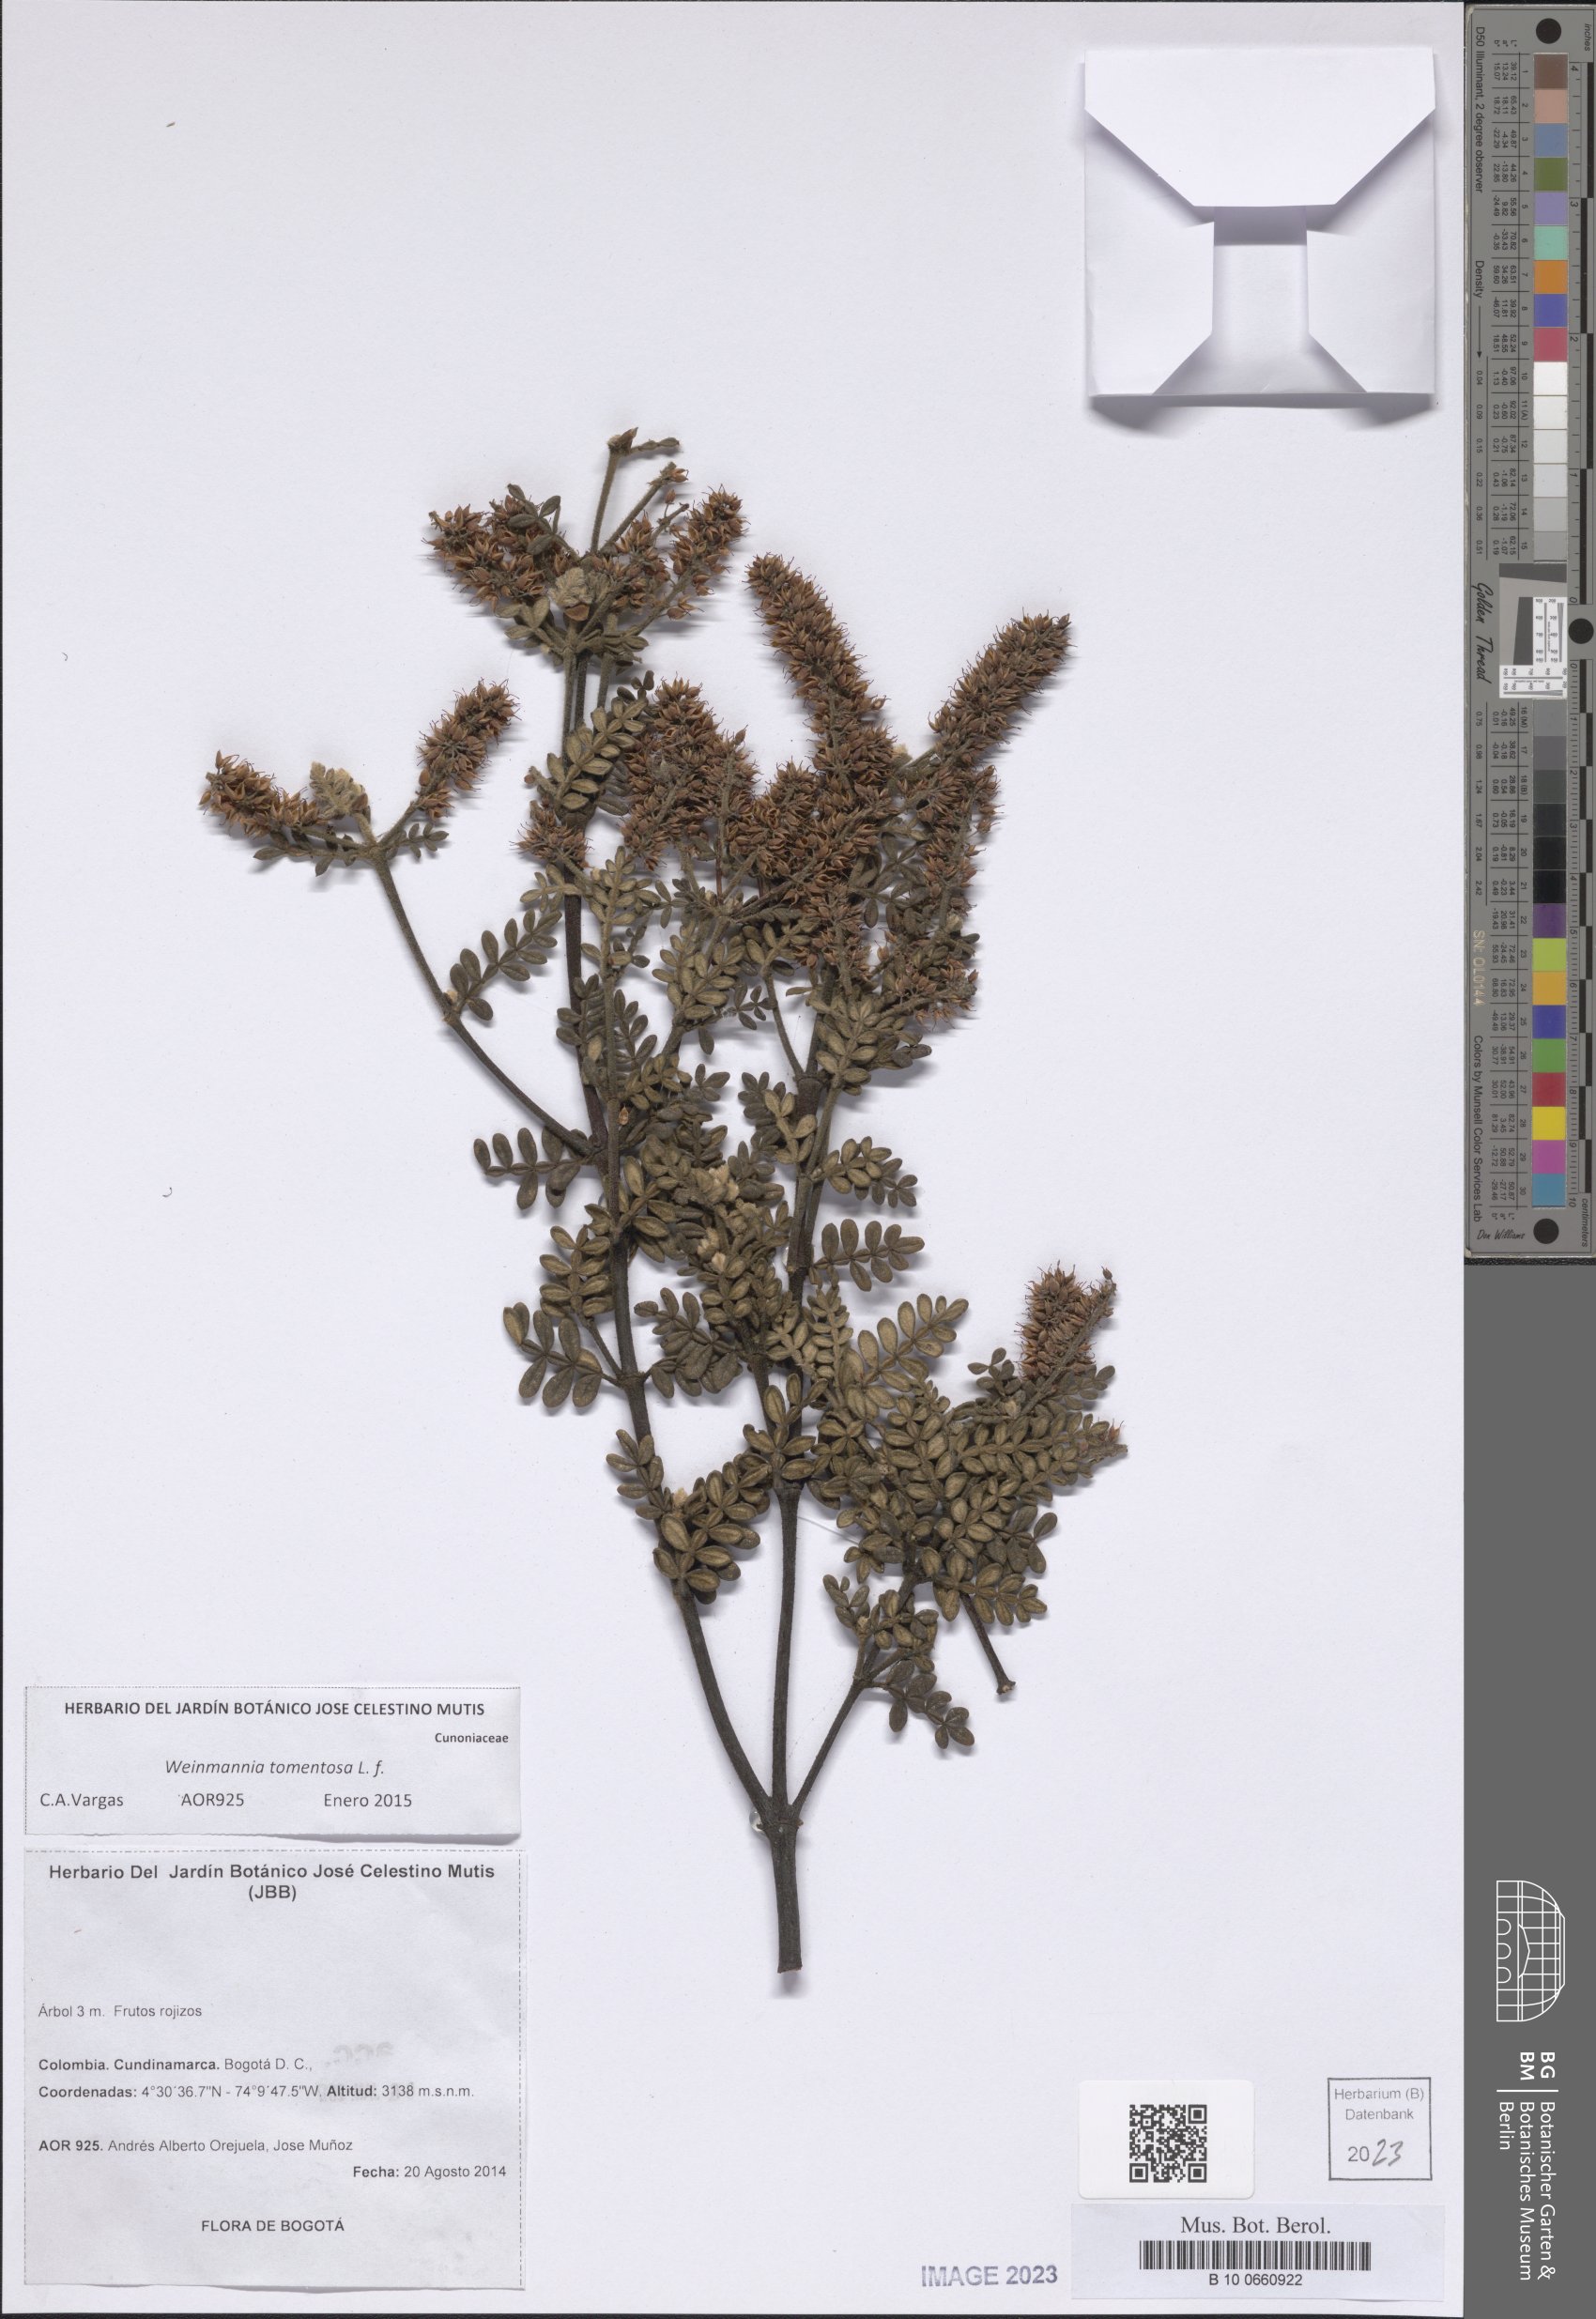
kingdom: Plantae
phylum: Tracheophyta
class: Magnoliopsida
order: Oxalidales
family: Cunoniaceae
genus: Weinmannia
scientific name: Weinmannia tomentosa
